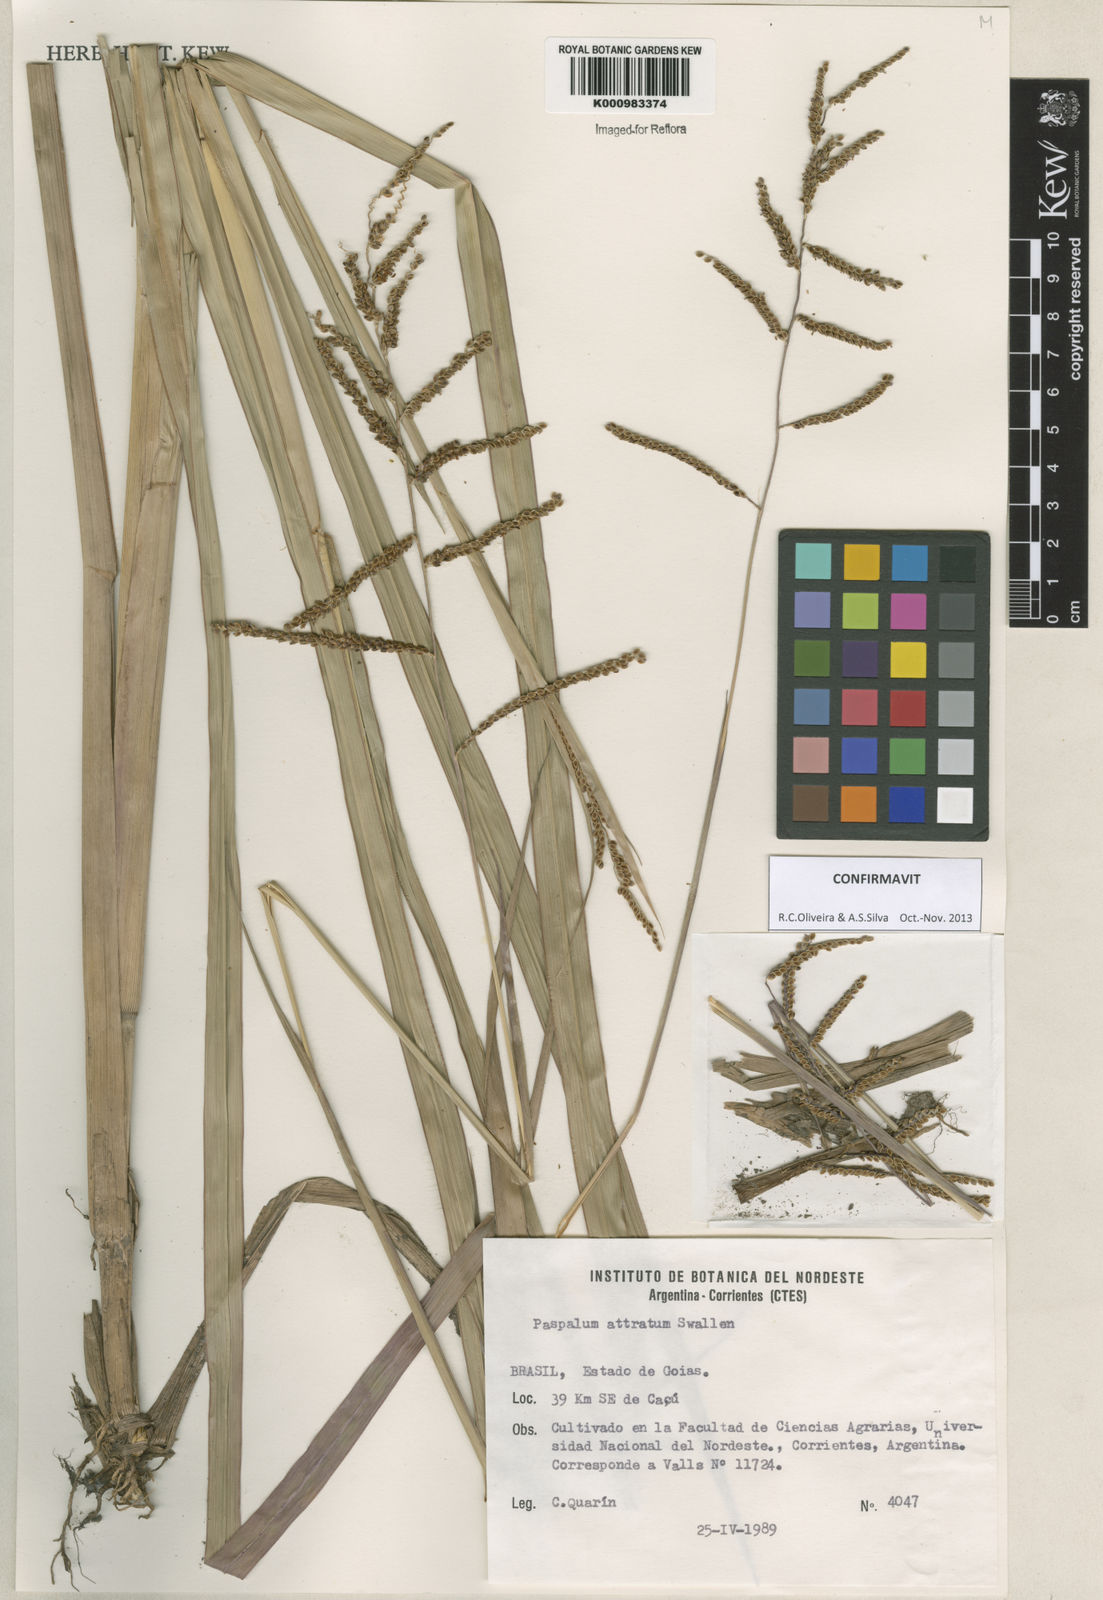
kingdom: Plantae
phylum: Tracheophyta
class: Liliopsida
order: Poales
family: Poaceae
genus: Paspalum
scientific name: Paspalum atratum
